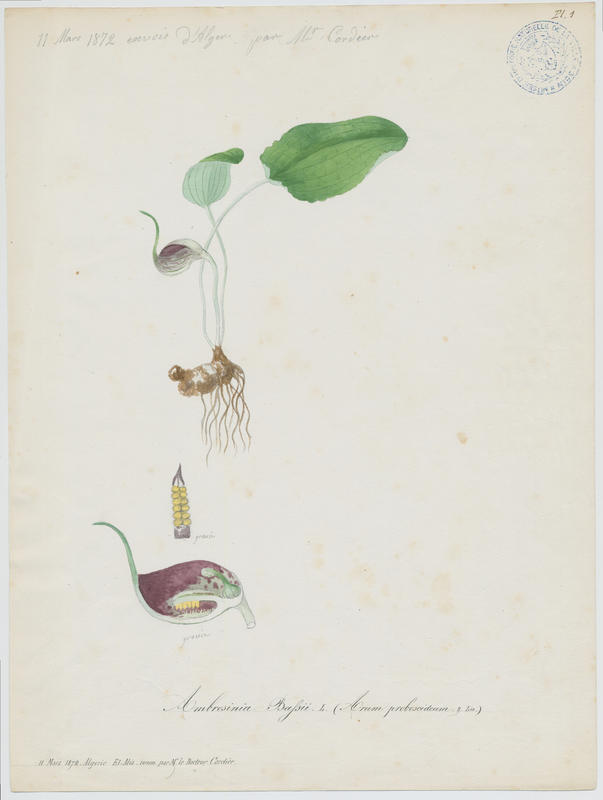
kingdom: Plantae
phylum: Tracheophyta
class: Liliopsida
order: Alismatales
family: Araceae
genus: Ambrosina
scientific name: Ambrosina bassii
